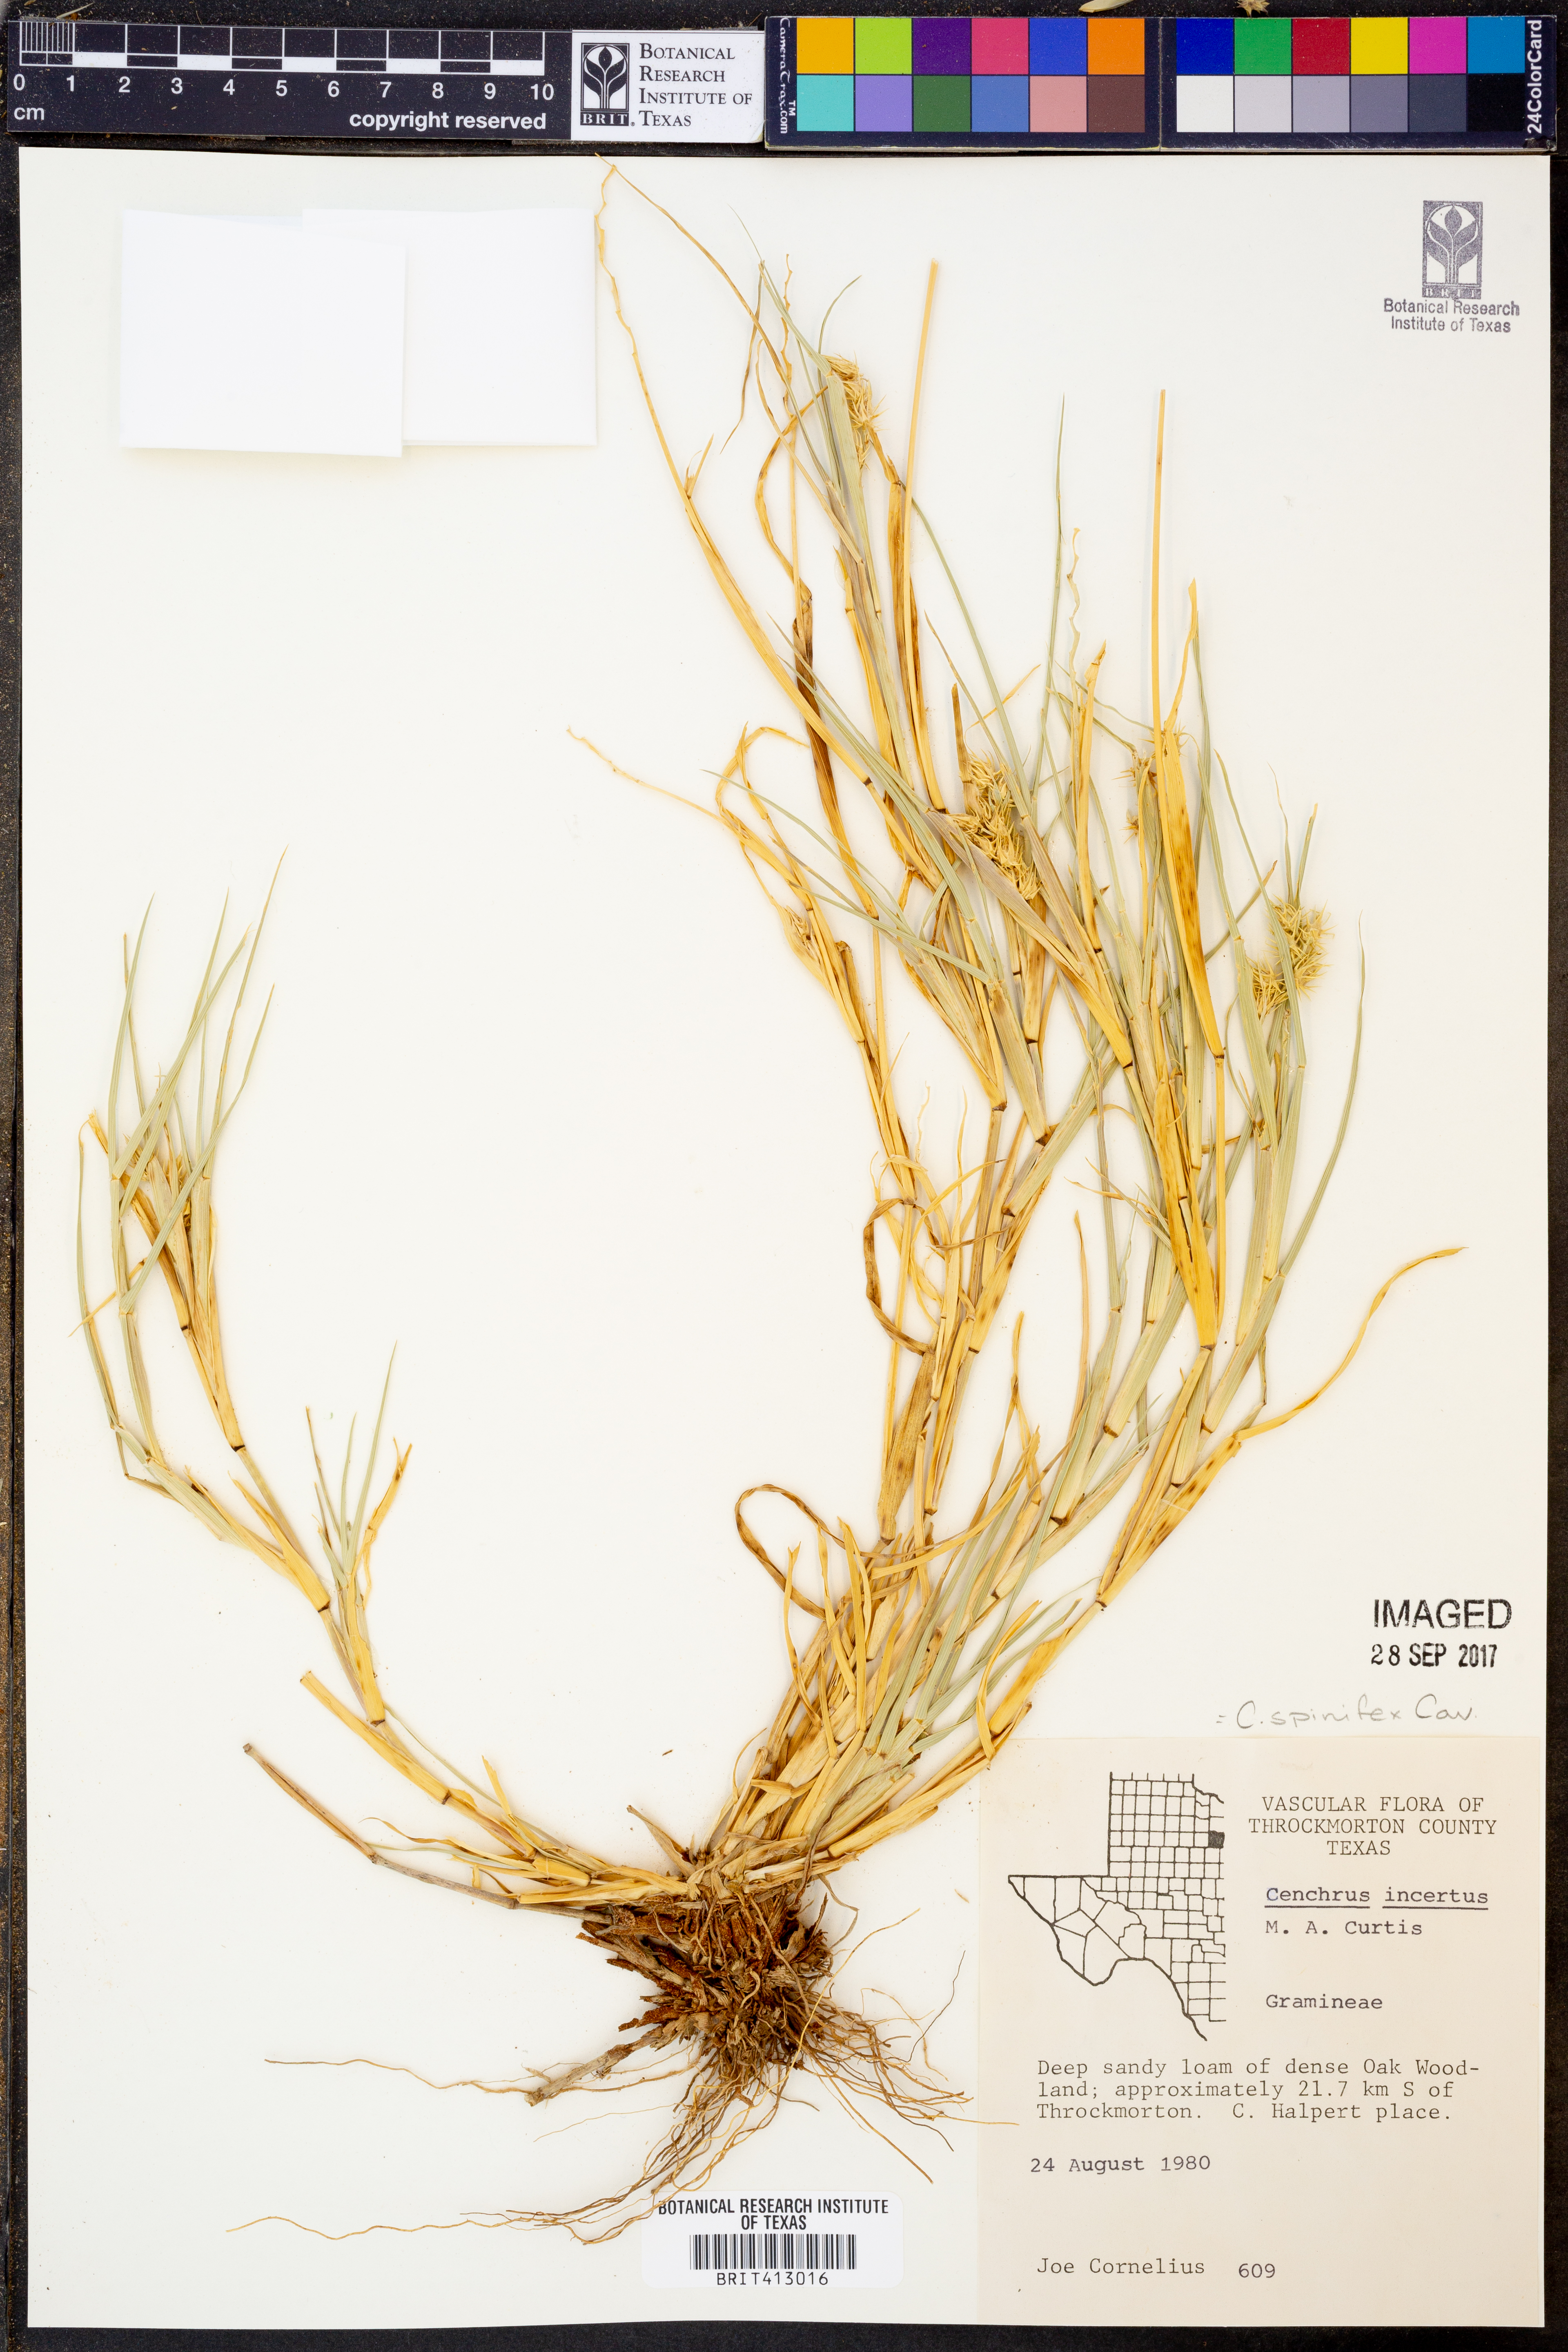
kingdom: Plantae
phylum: Tracheophyta
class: Liliopsida
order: Poales
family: Poaceae
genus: Cenchrus
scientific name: Cenchrus spinifex
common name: Coast sandbur
